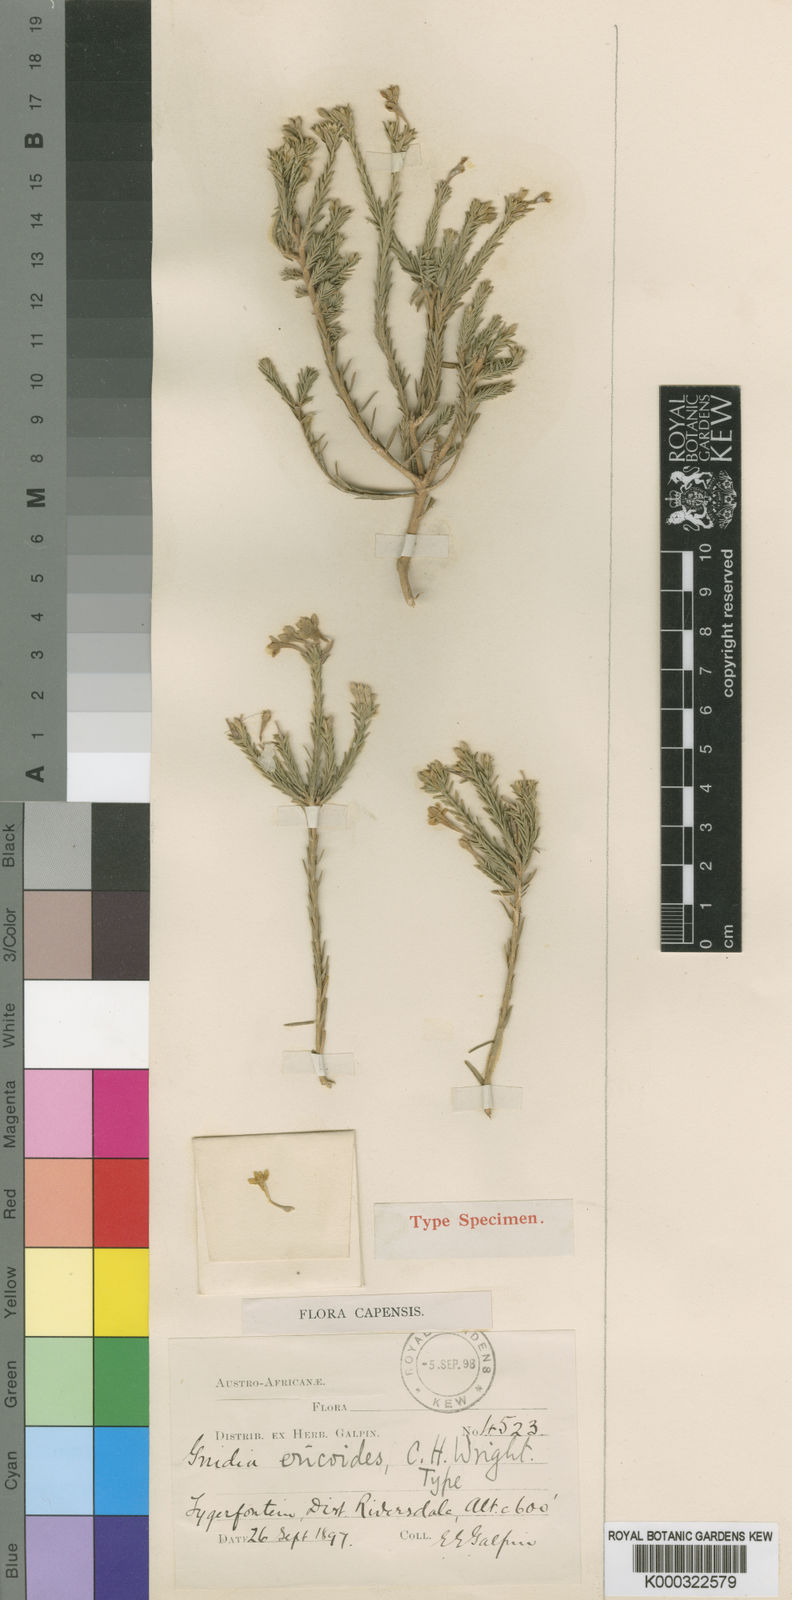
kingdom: Plantae
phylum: Tracheophyta
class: Magnoliopsida
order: Malvales
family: Thymelaeaceae
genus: Gnidia
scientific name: Gnidia ericoides
